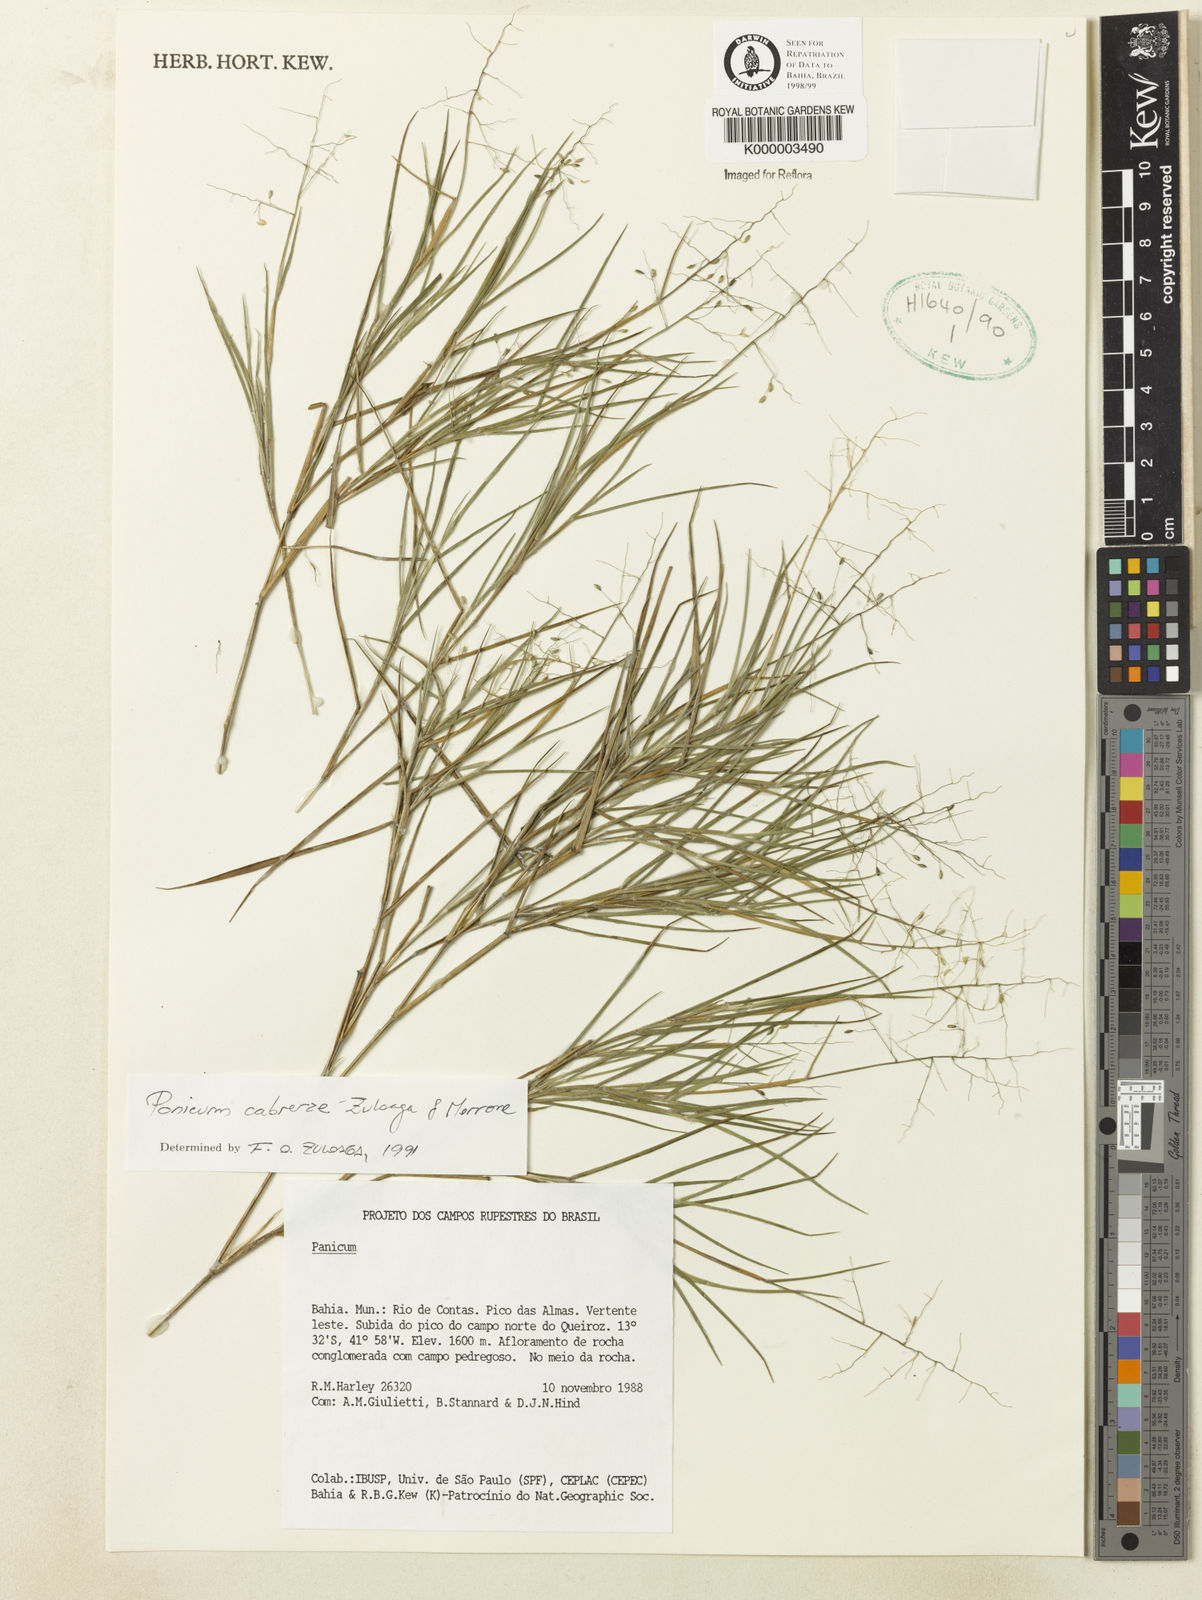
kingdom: Plantae
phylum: Tracheophyta
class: Liliopsida
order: Poales
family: Poaceae
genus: Dichanthelium
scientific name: Dichanthelium cabrerae
